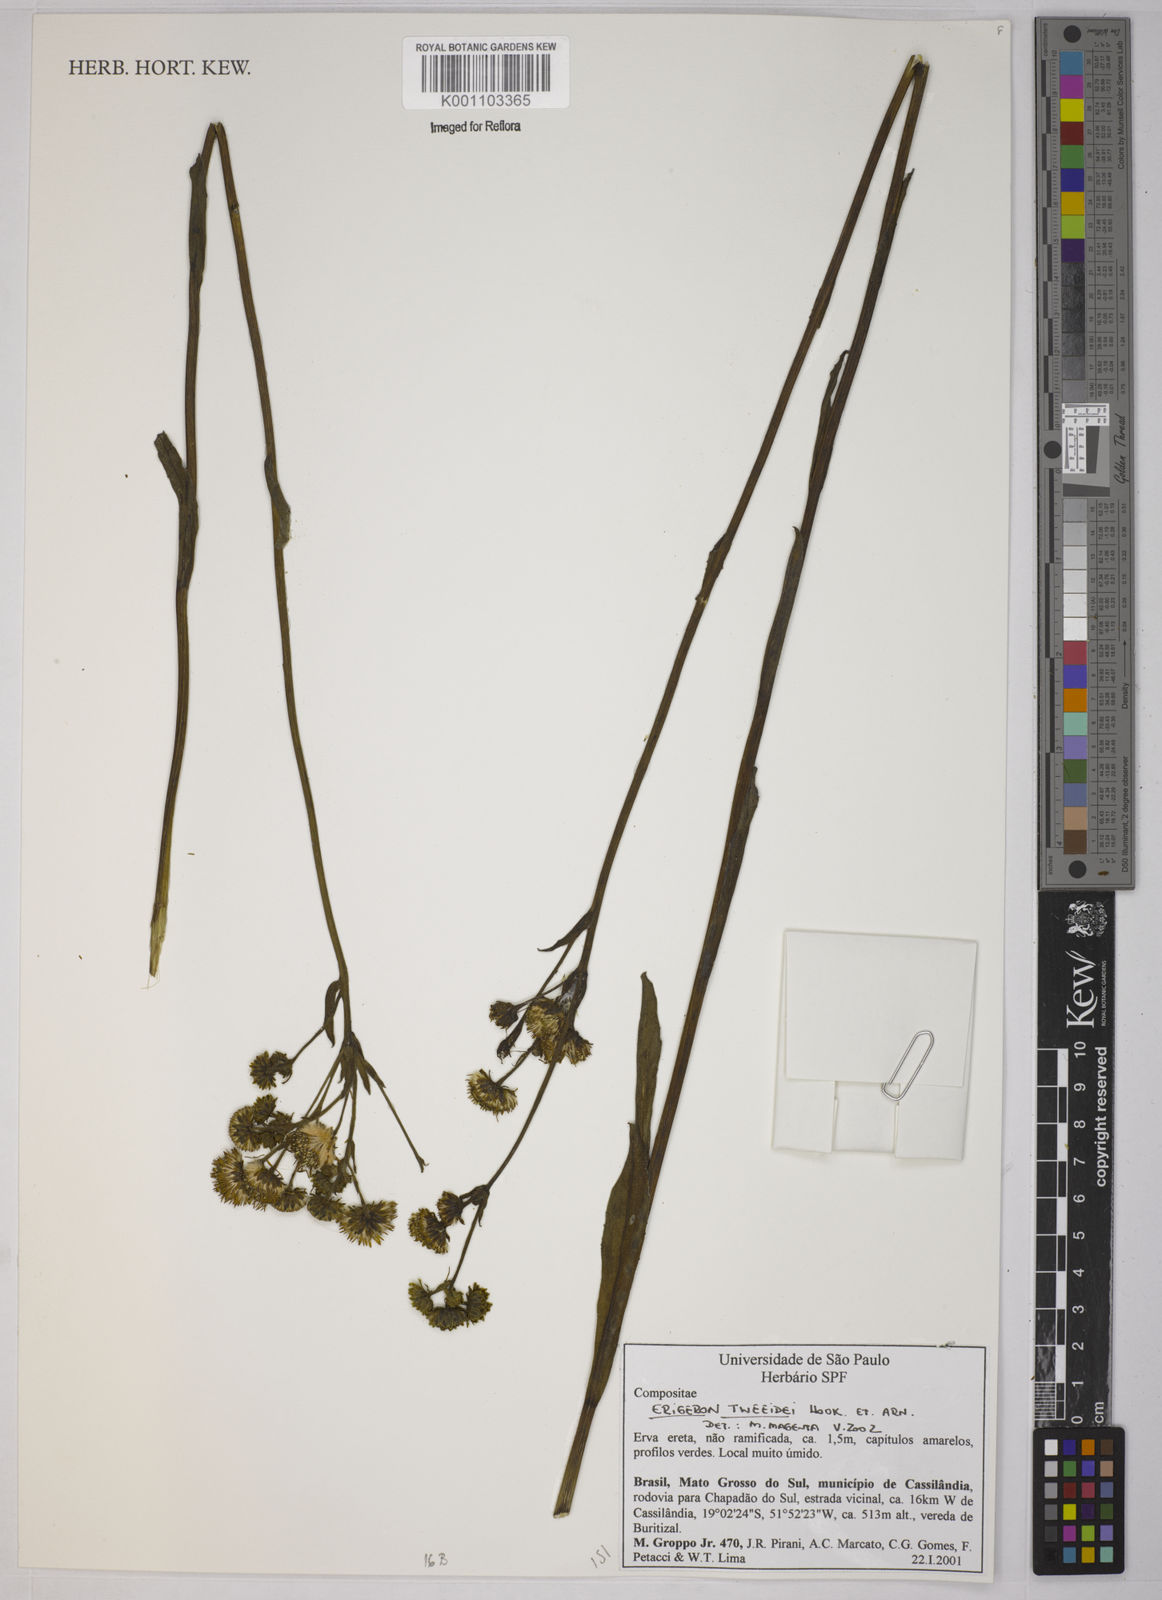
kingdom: Plantae
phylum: Tracheophyta
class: Magnoliopsida
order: Asterales
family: Asteraceae
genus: Leptostelma
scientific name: Leptostelma tweediei
